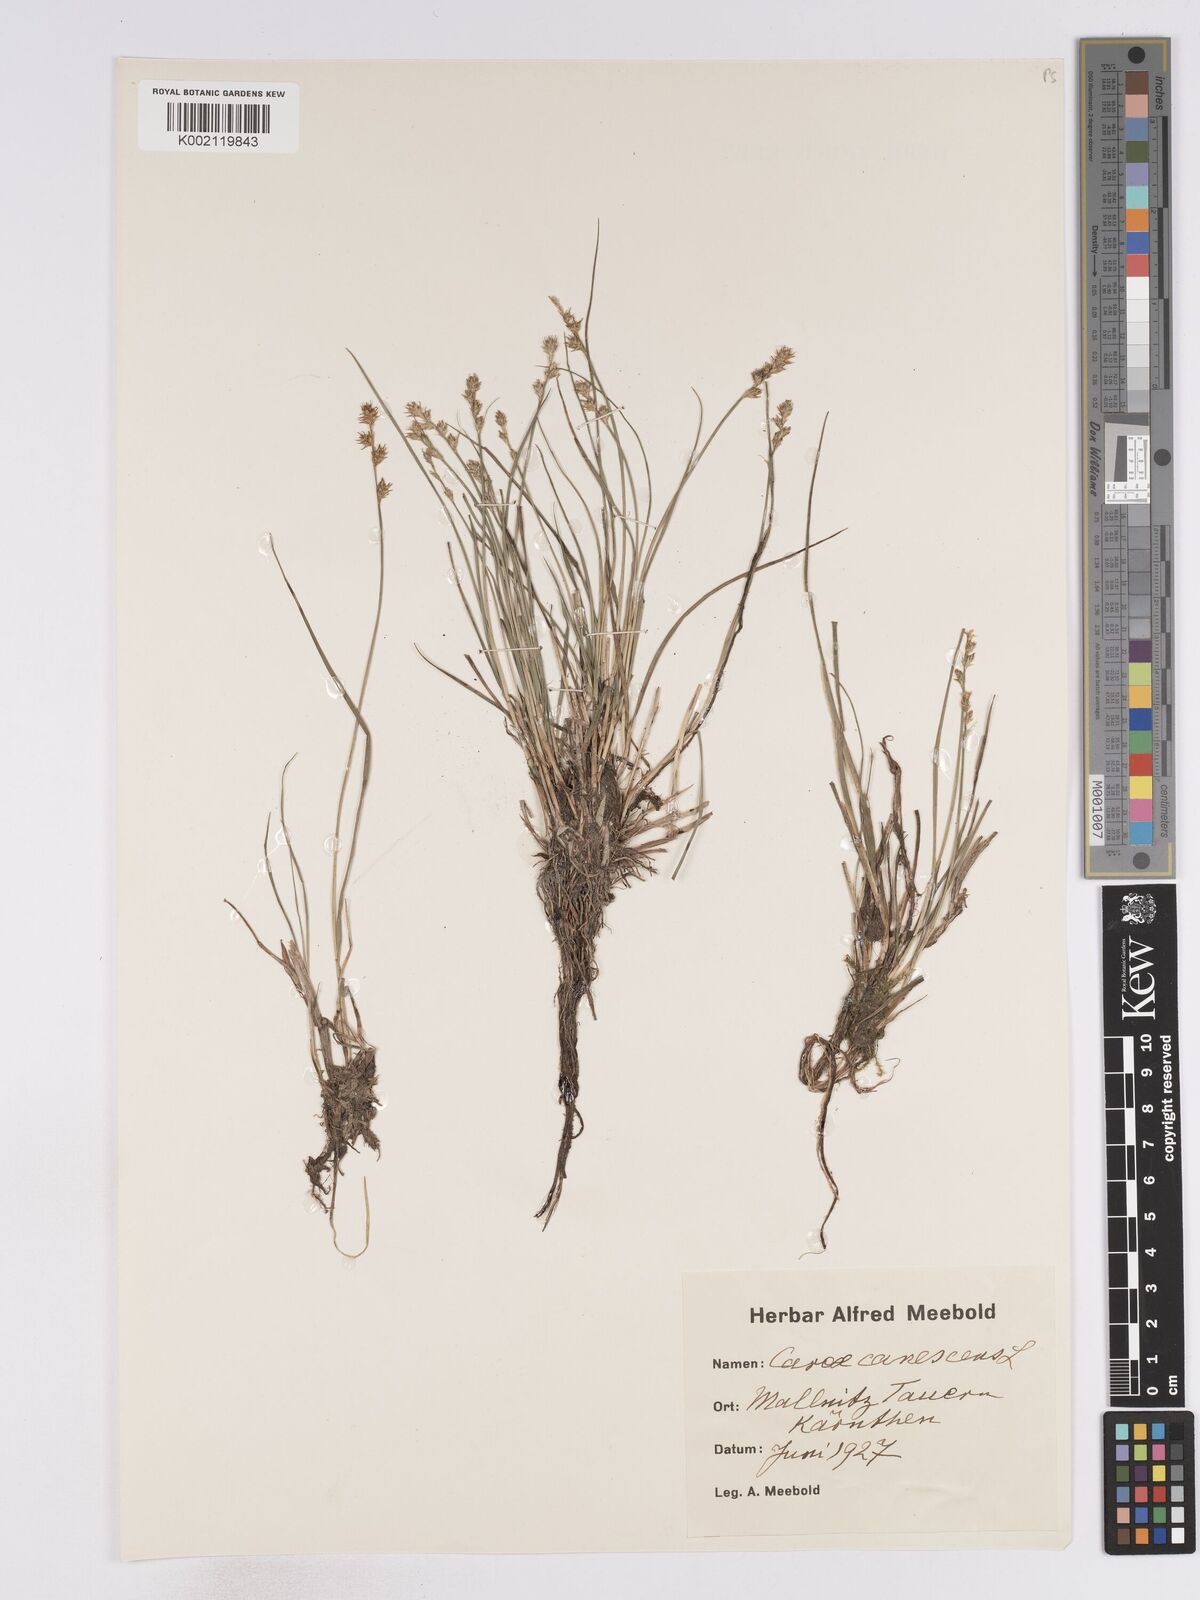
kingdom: Plantae
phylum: Tracheophyta
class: Liliopsida
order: Poales
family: Cyperaceae
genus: Carex
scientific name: Carex curta
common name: White sedge
